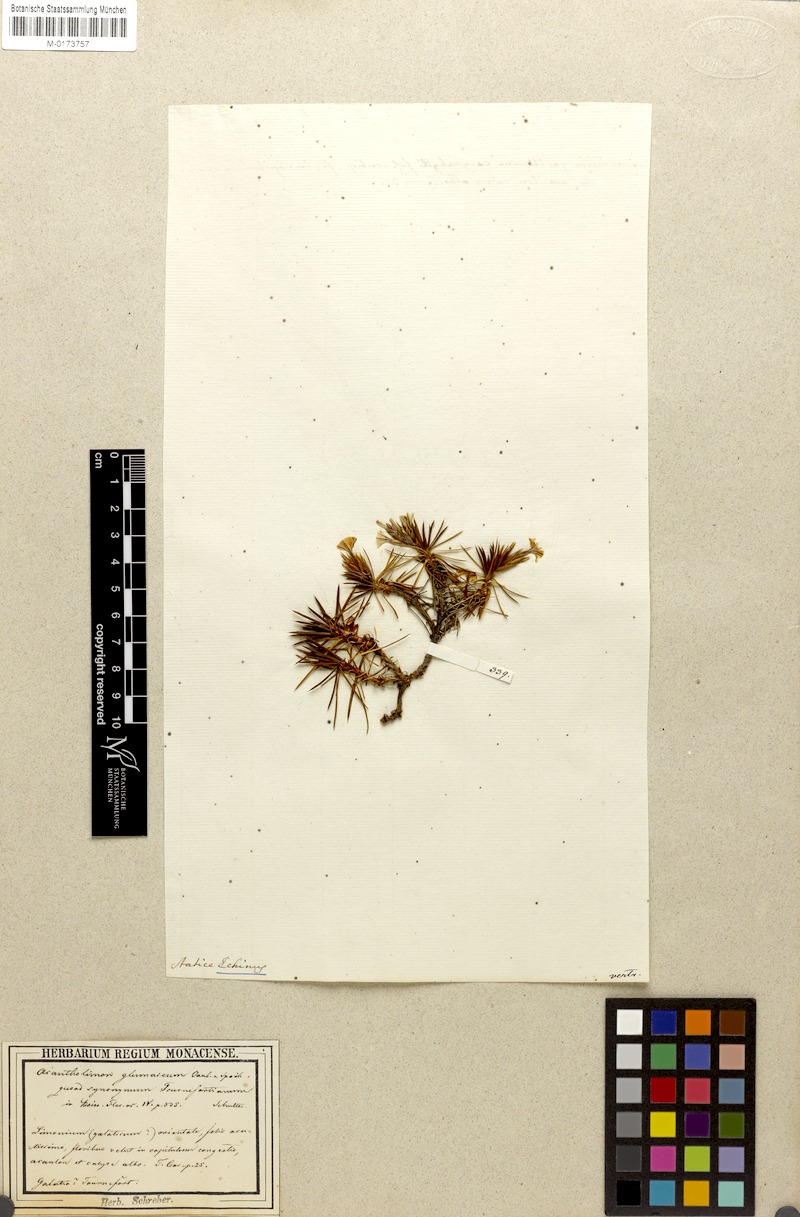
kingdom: Plantae
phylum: Tracheophyta
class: Magnoliopsida
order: Caryophyllales
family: Plumbaginaceae
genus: Acantholimon
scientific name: Acantholimon ulicinum
